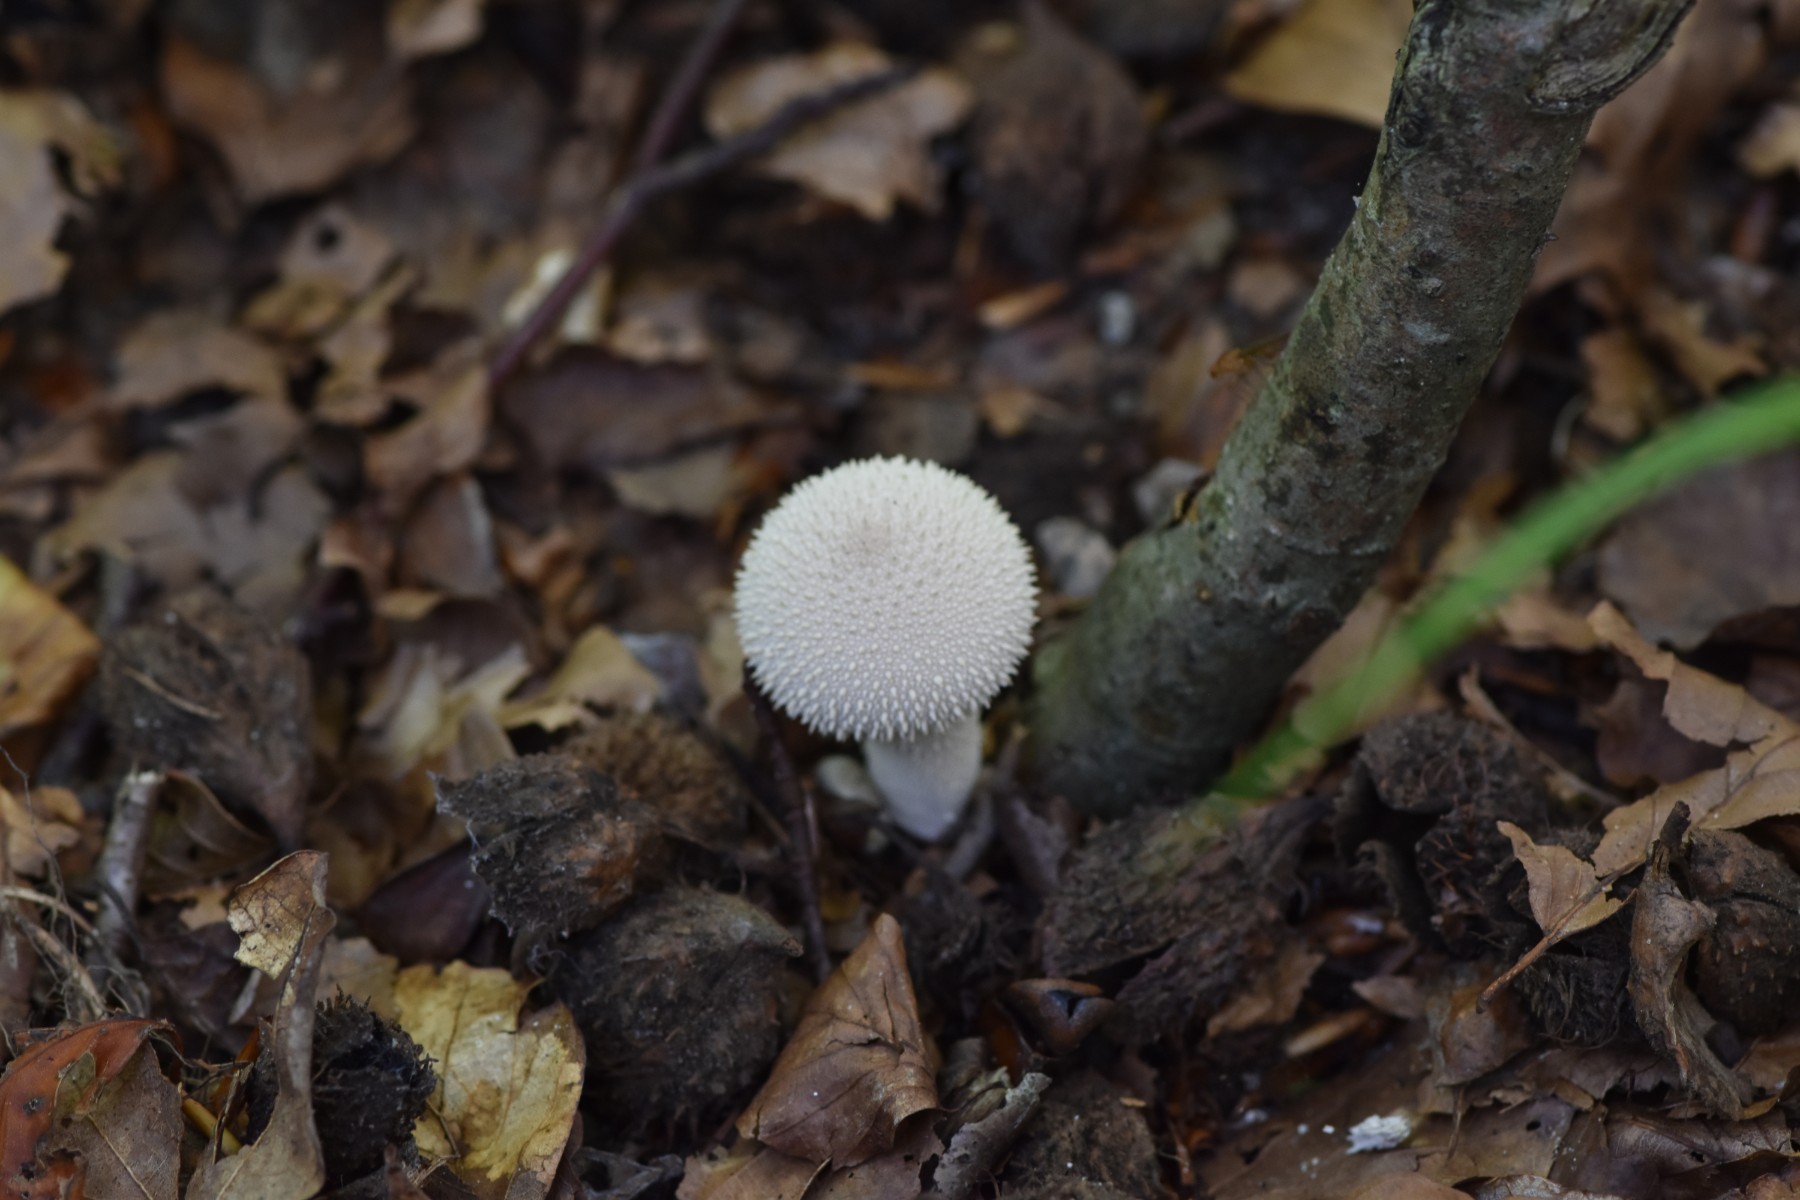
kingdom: Fungi
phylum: Basidiomycota
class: Agaricomycetes
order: Agaricales
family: Lycoperdaceae
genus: Lycoperdon
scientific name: Lycoperdon perlatum
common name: krystal-støvbold
